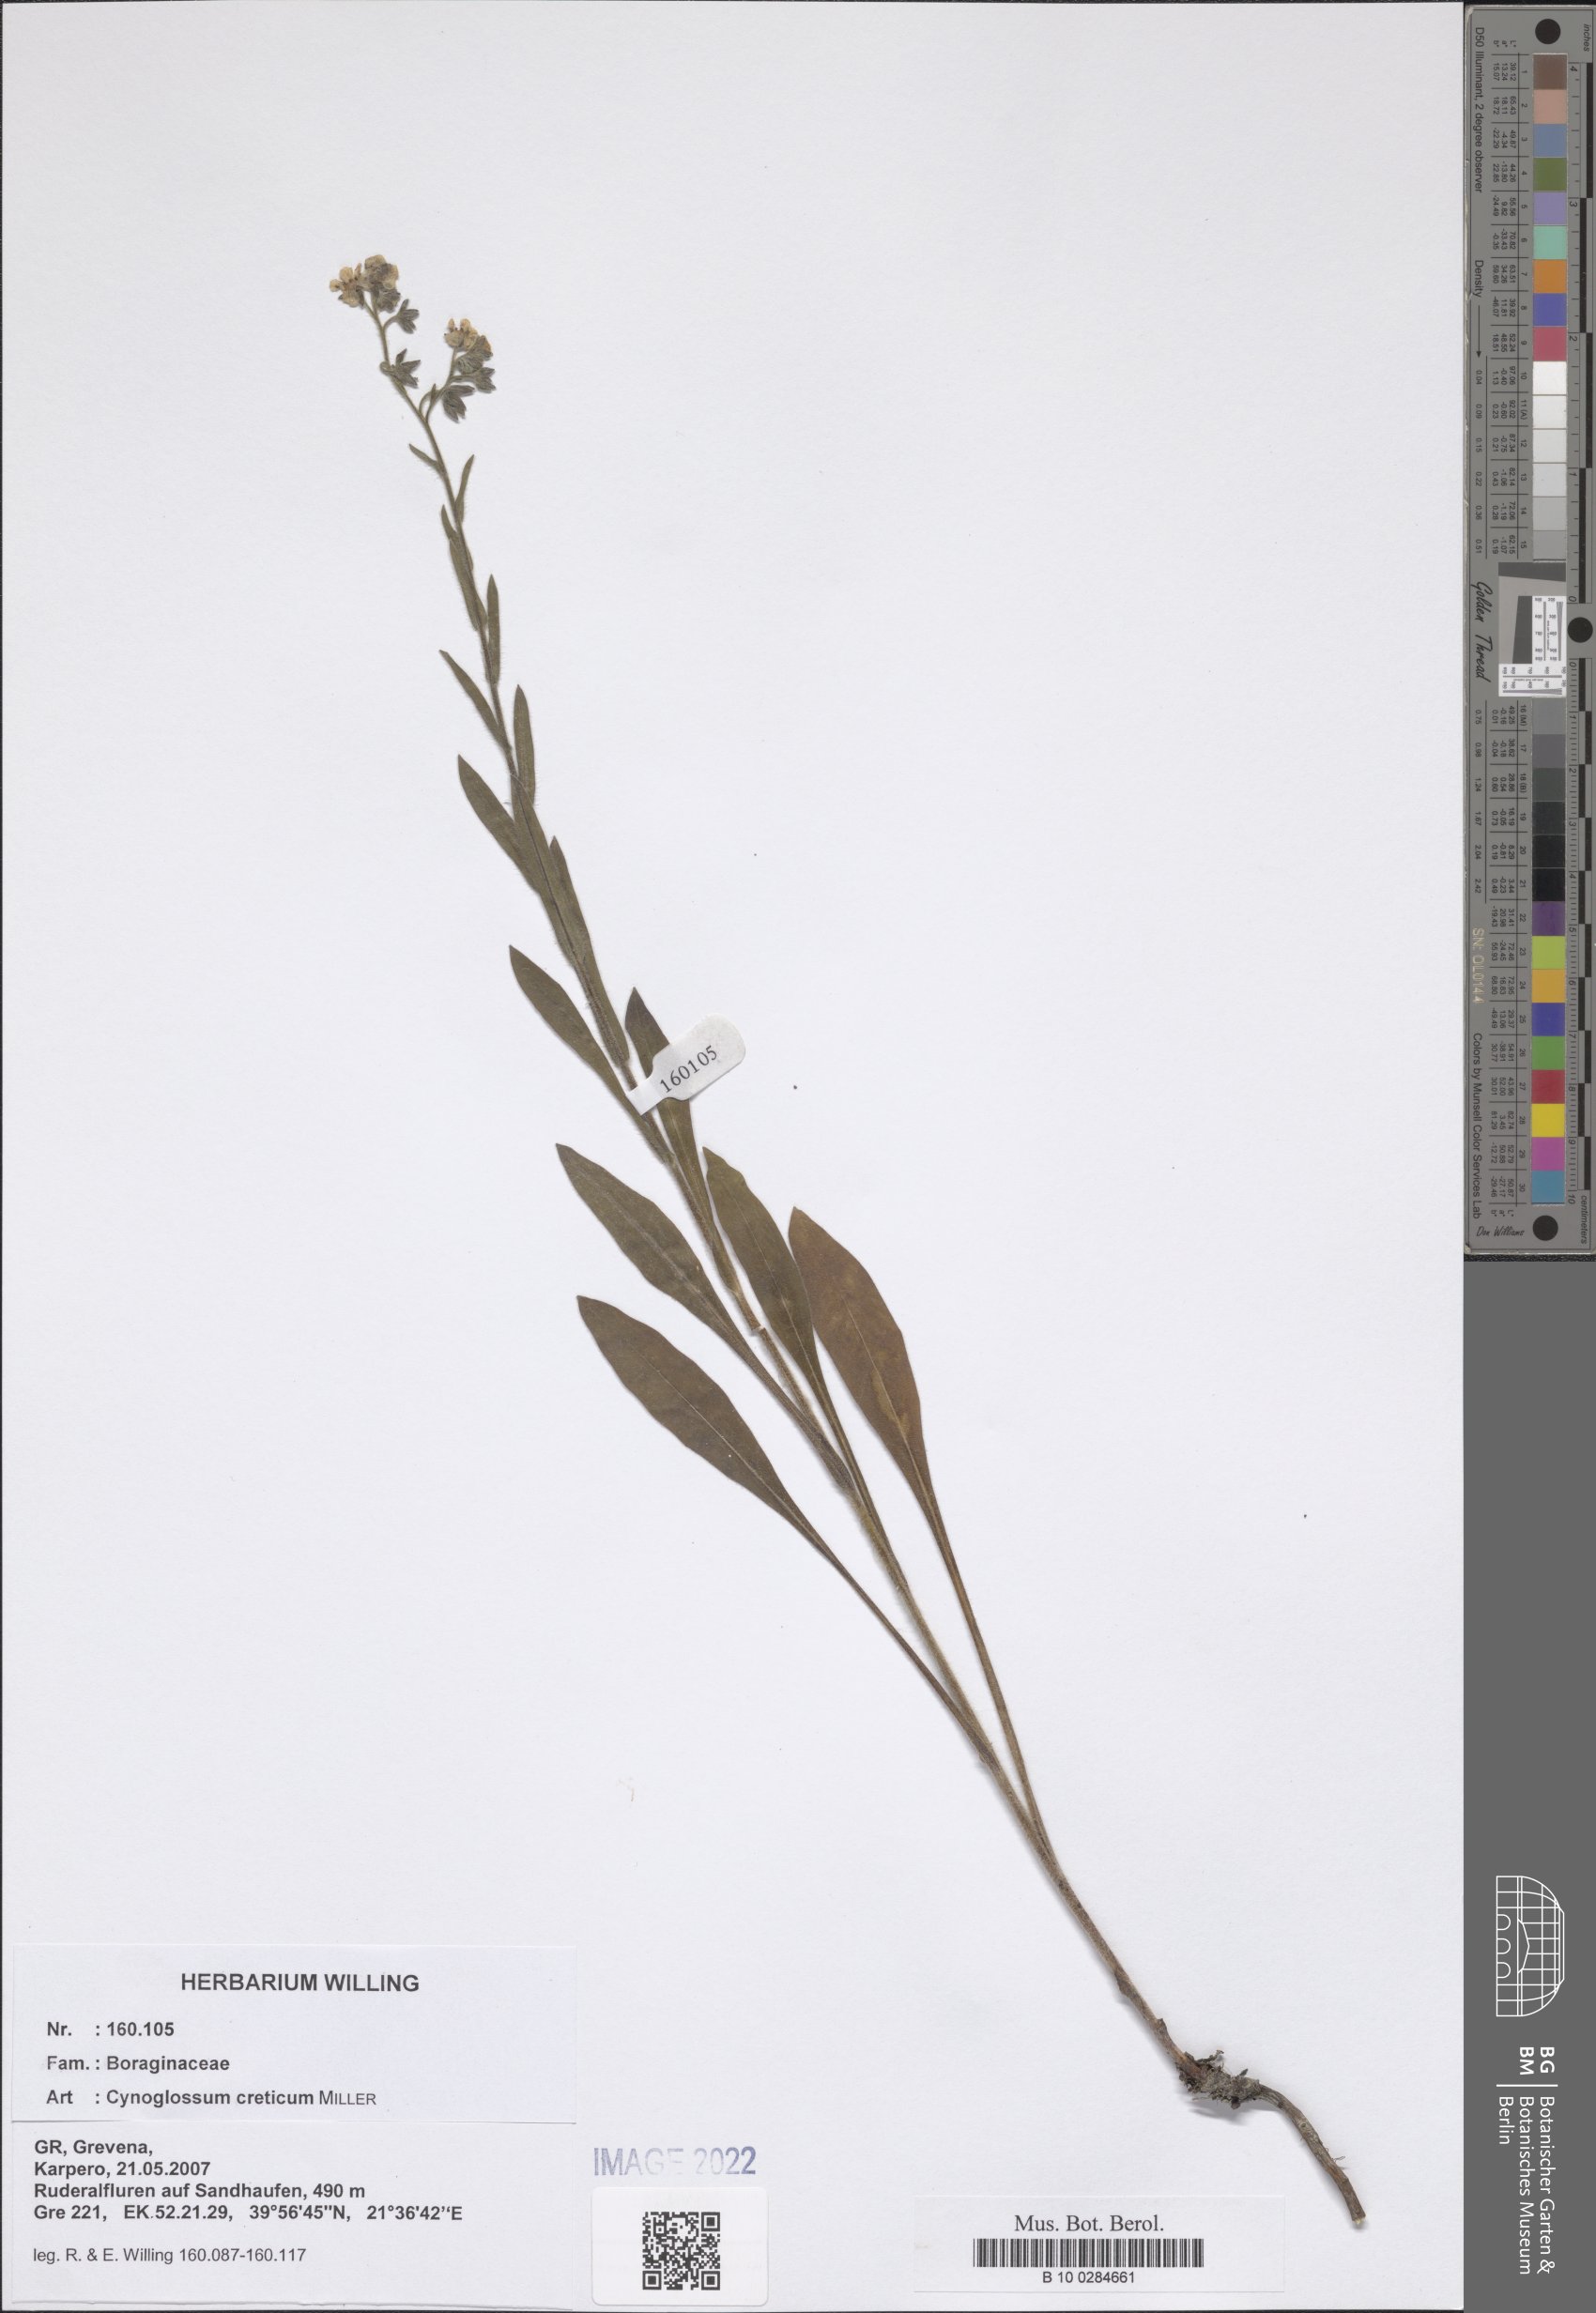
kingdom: Plantae
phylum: Tracheophyta
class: Magnoliopsida
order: Boraginales
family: Boraginaceae
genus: Cynoglossum
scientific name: Cynoglossum creticum
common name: Blue hound's tongue
